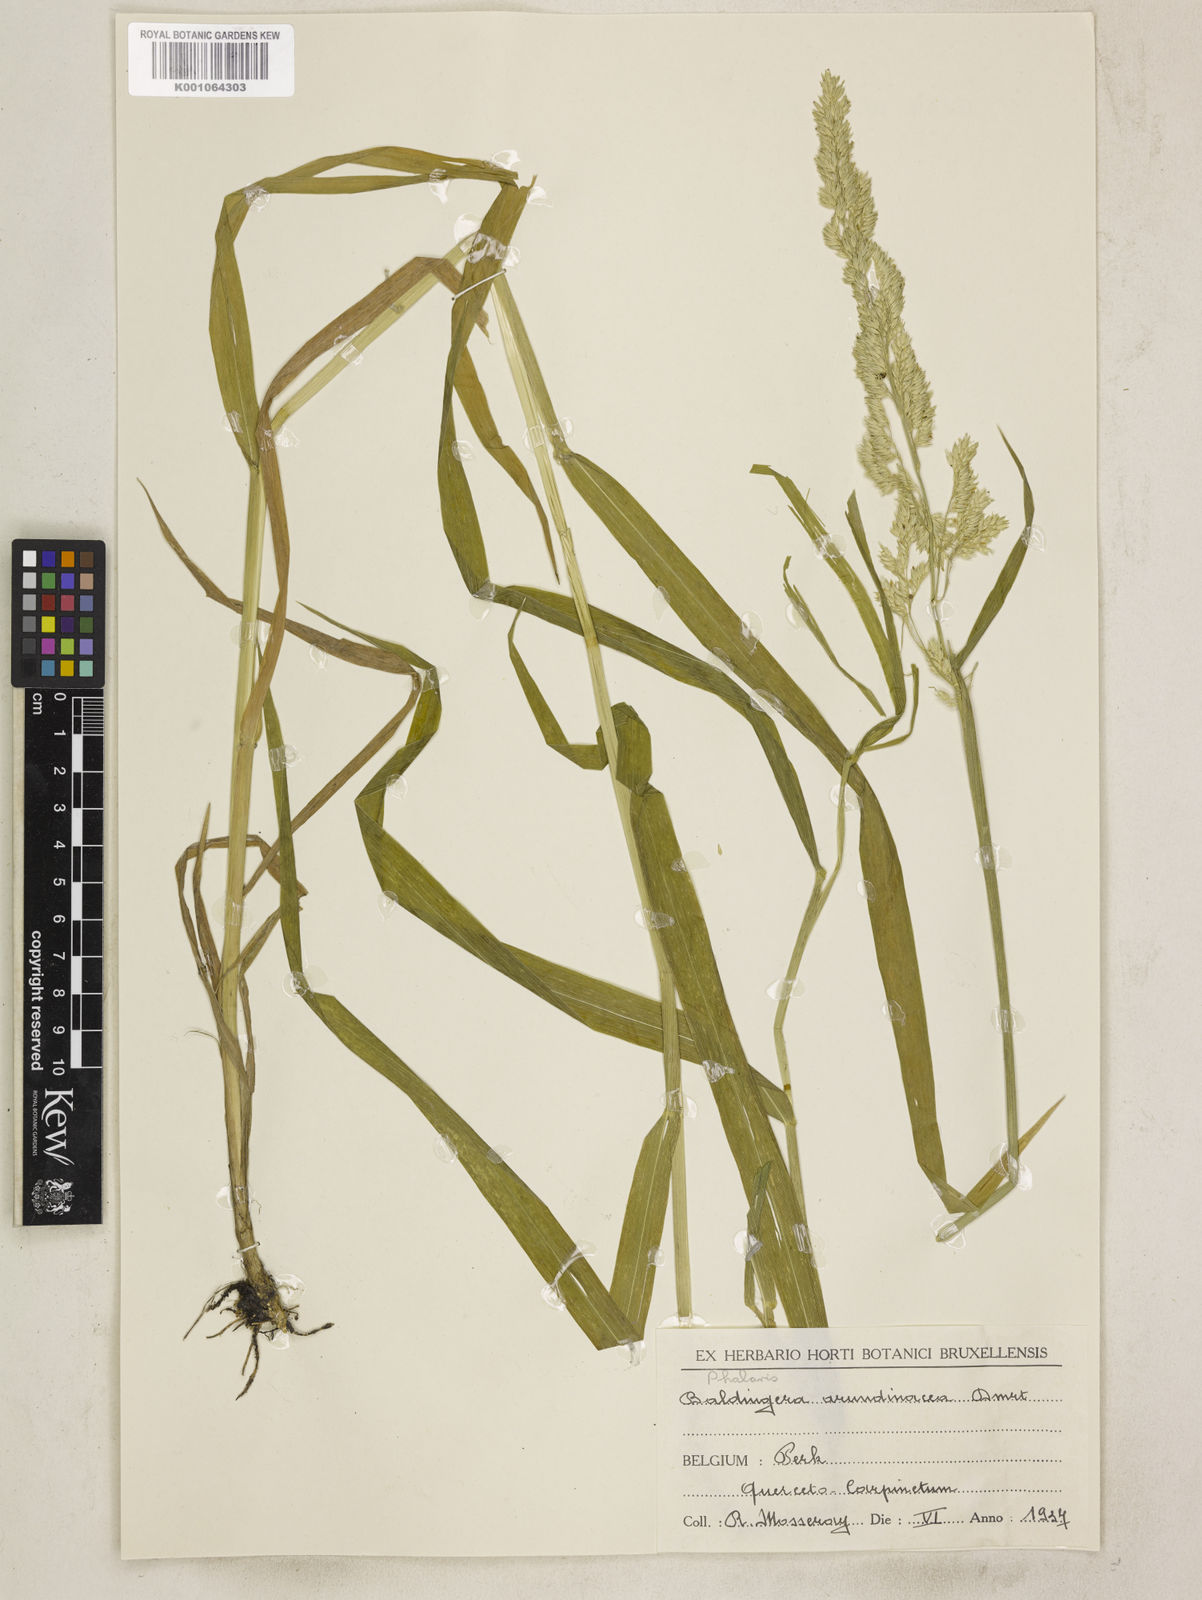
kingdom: Plantae
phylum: Tracheophyta
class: Liliopsida
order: Poales
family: Poaceae
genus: Phalaris
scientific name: Phalaris arundinacea
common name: Reed canary-grass
